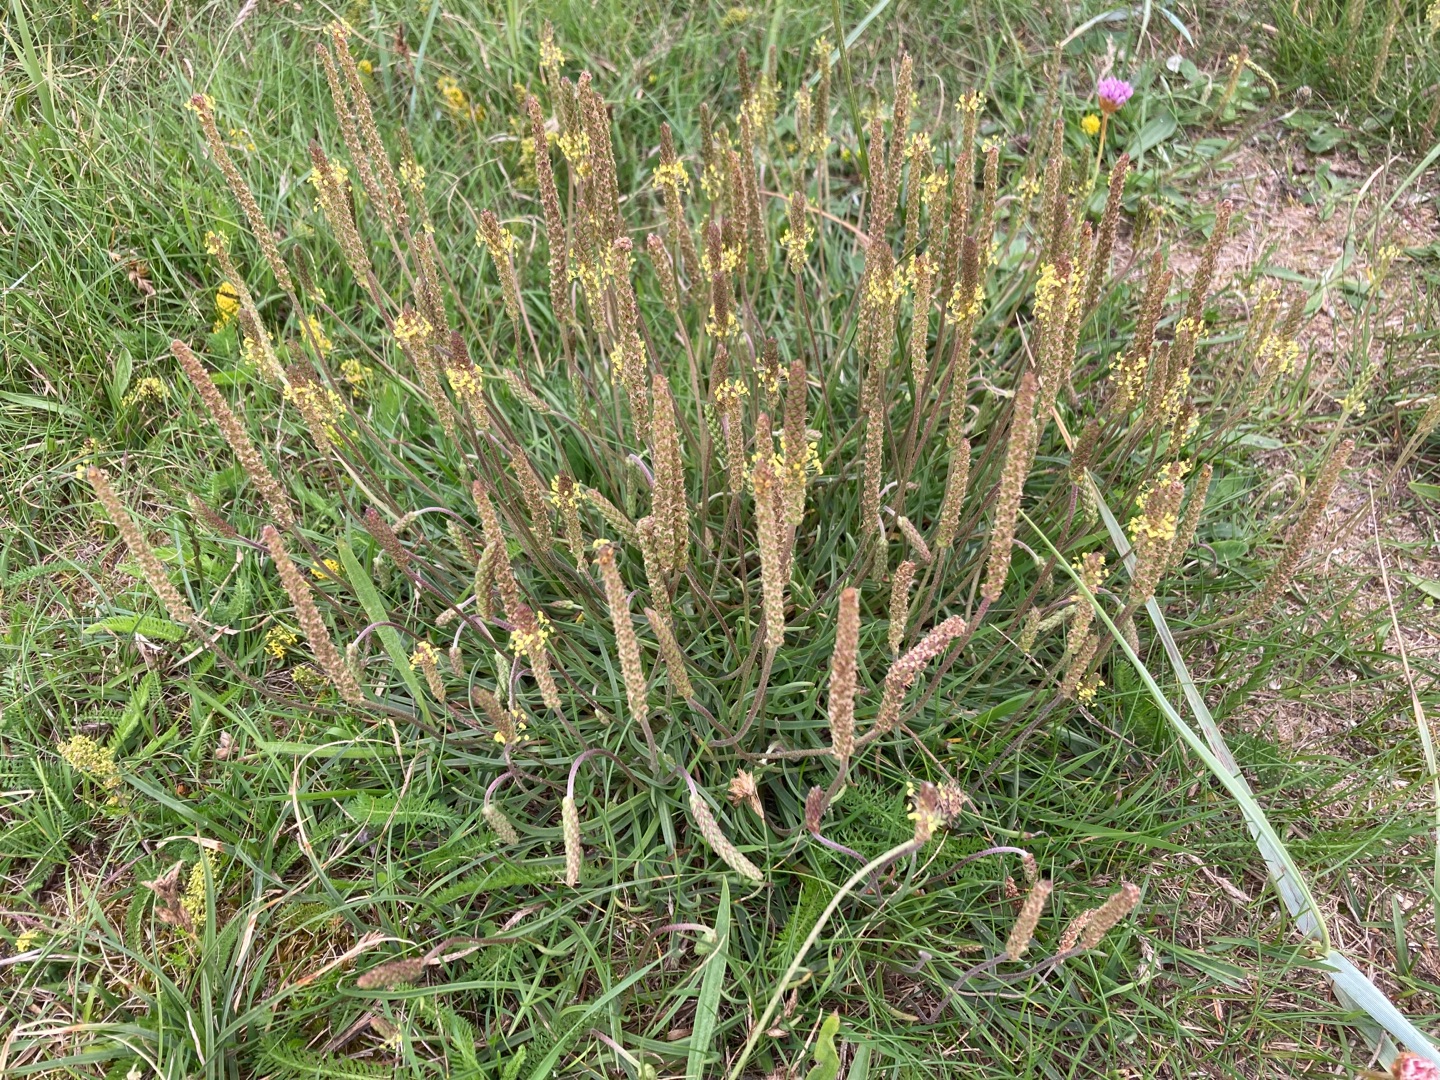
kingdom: Plantae
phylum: Tracheophyta
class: Magnoliopsida
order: Lamiales
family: Plantaginaceae
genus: Plantago
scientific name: Plantago maritima
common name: Strand-vejbred
